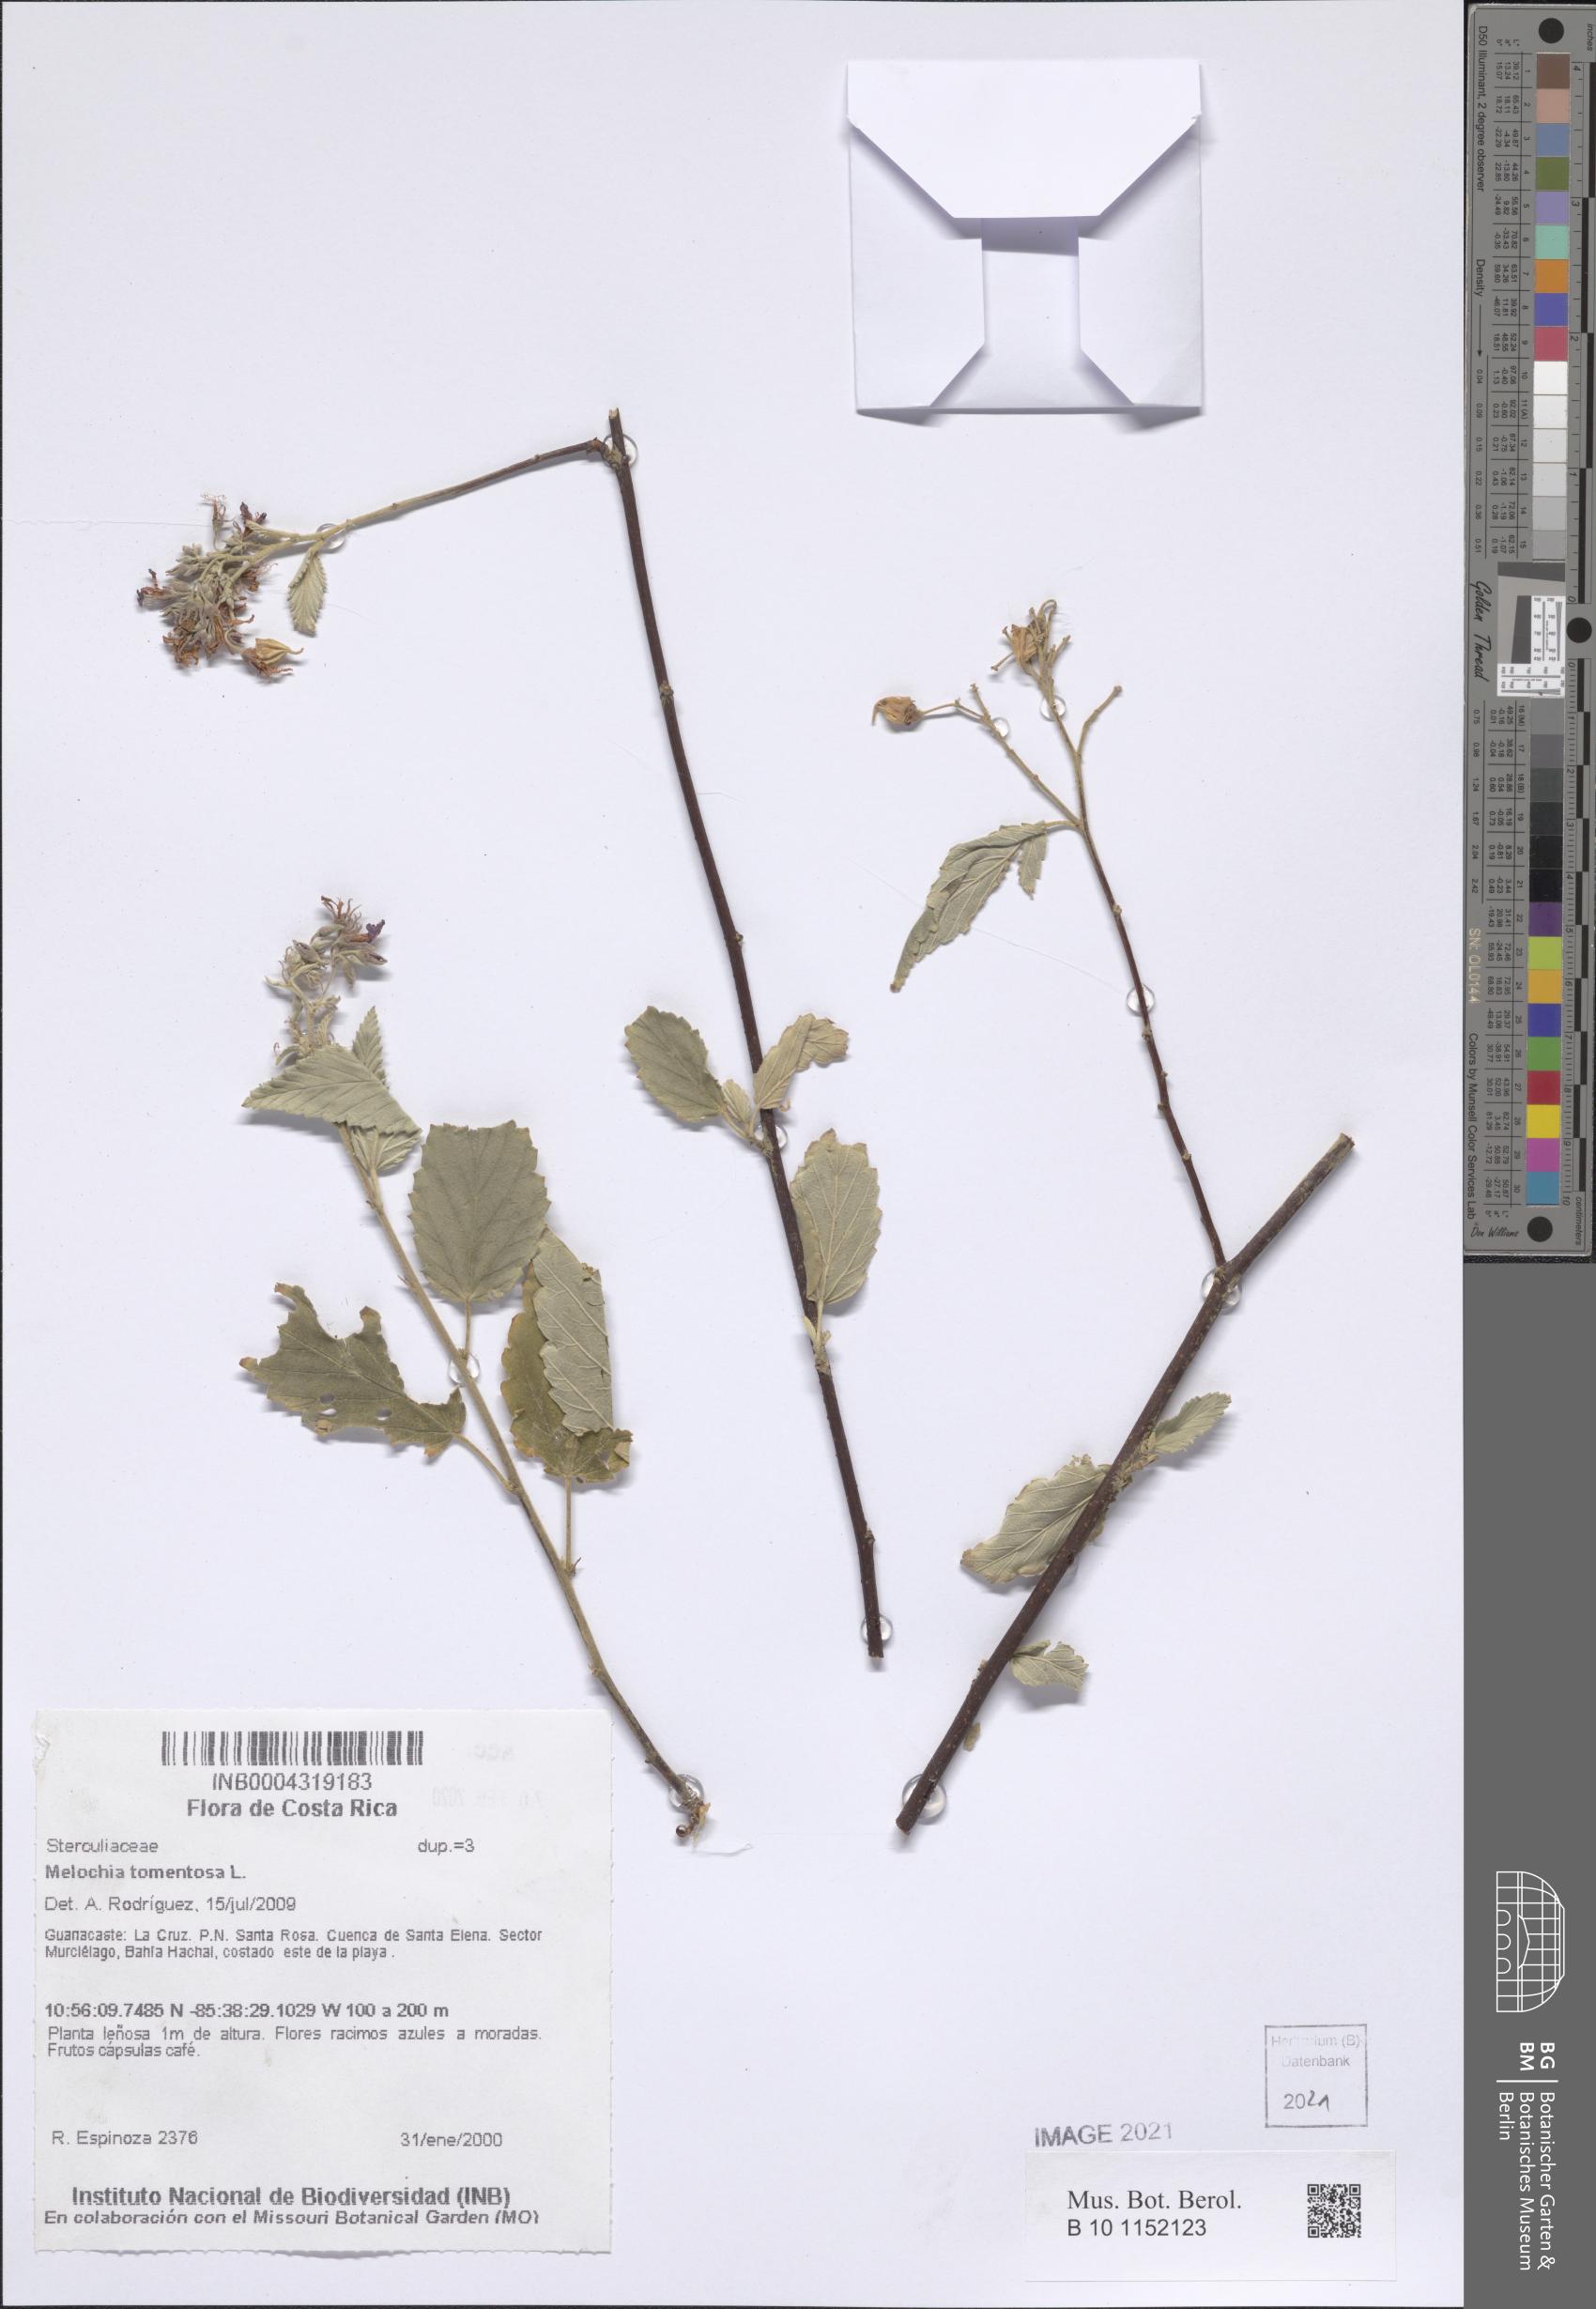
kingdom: Plantae
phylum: Tracheophyta
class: Magnoliopsida
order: Malvales
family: Malvaceae
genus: Melochia
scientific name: Melochia tomentosa
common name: Black torch
